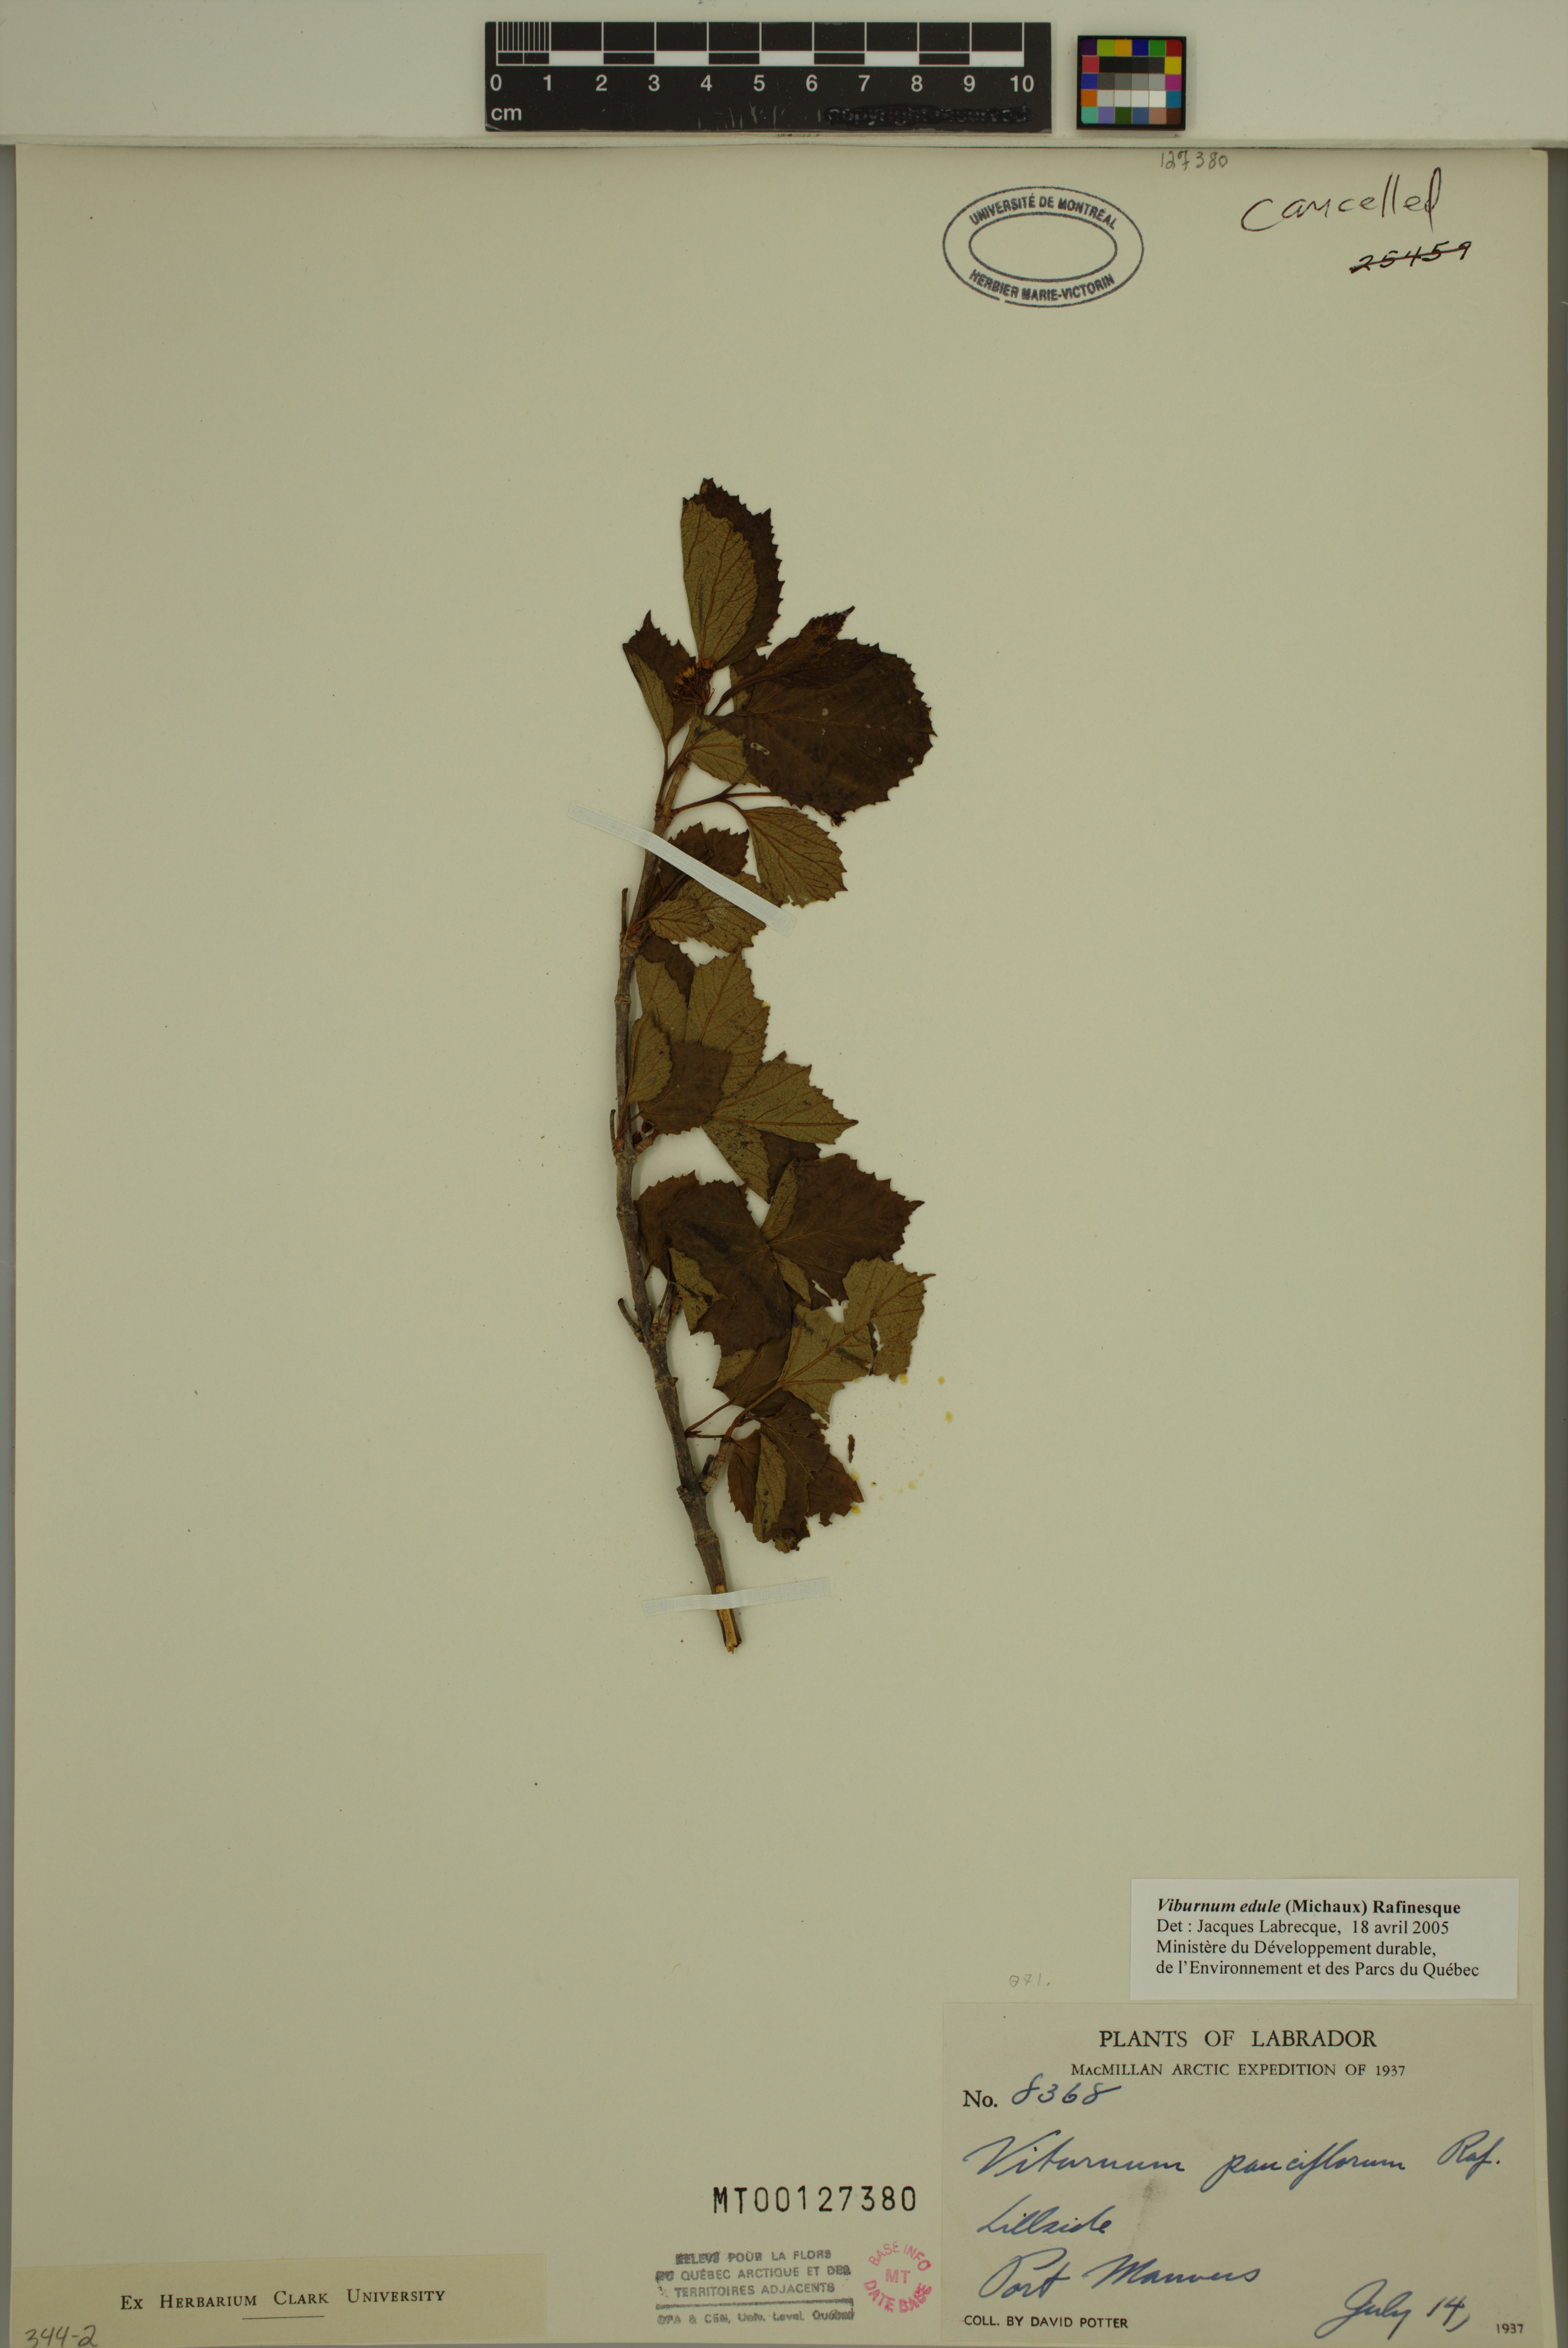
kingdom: Plantae
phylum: Tracheophyta
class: Magnoliopsida
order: Dipsacales
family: Viburnaceae
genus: Viburnum
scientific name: Viburnum edule
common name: Mooseberry
